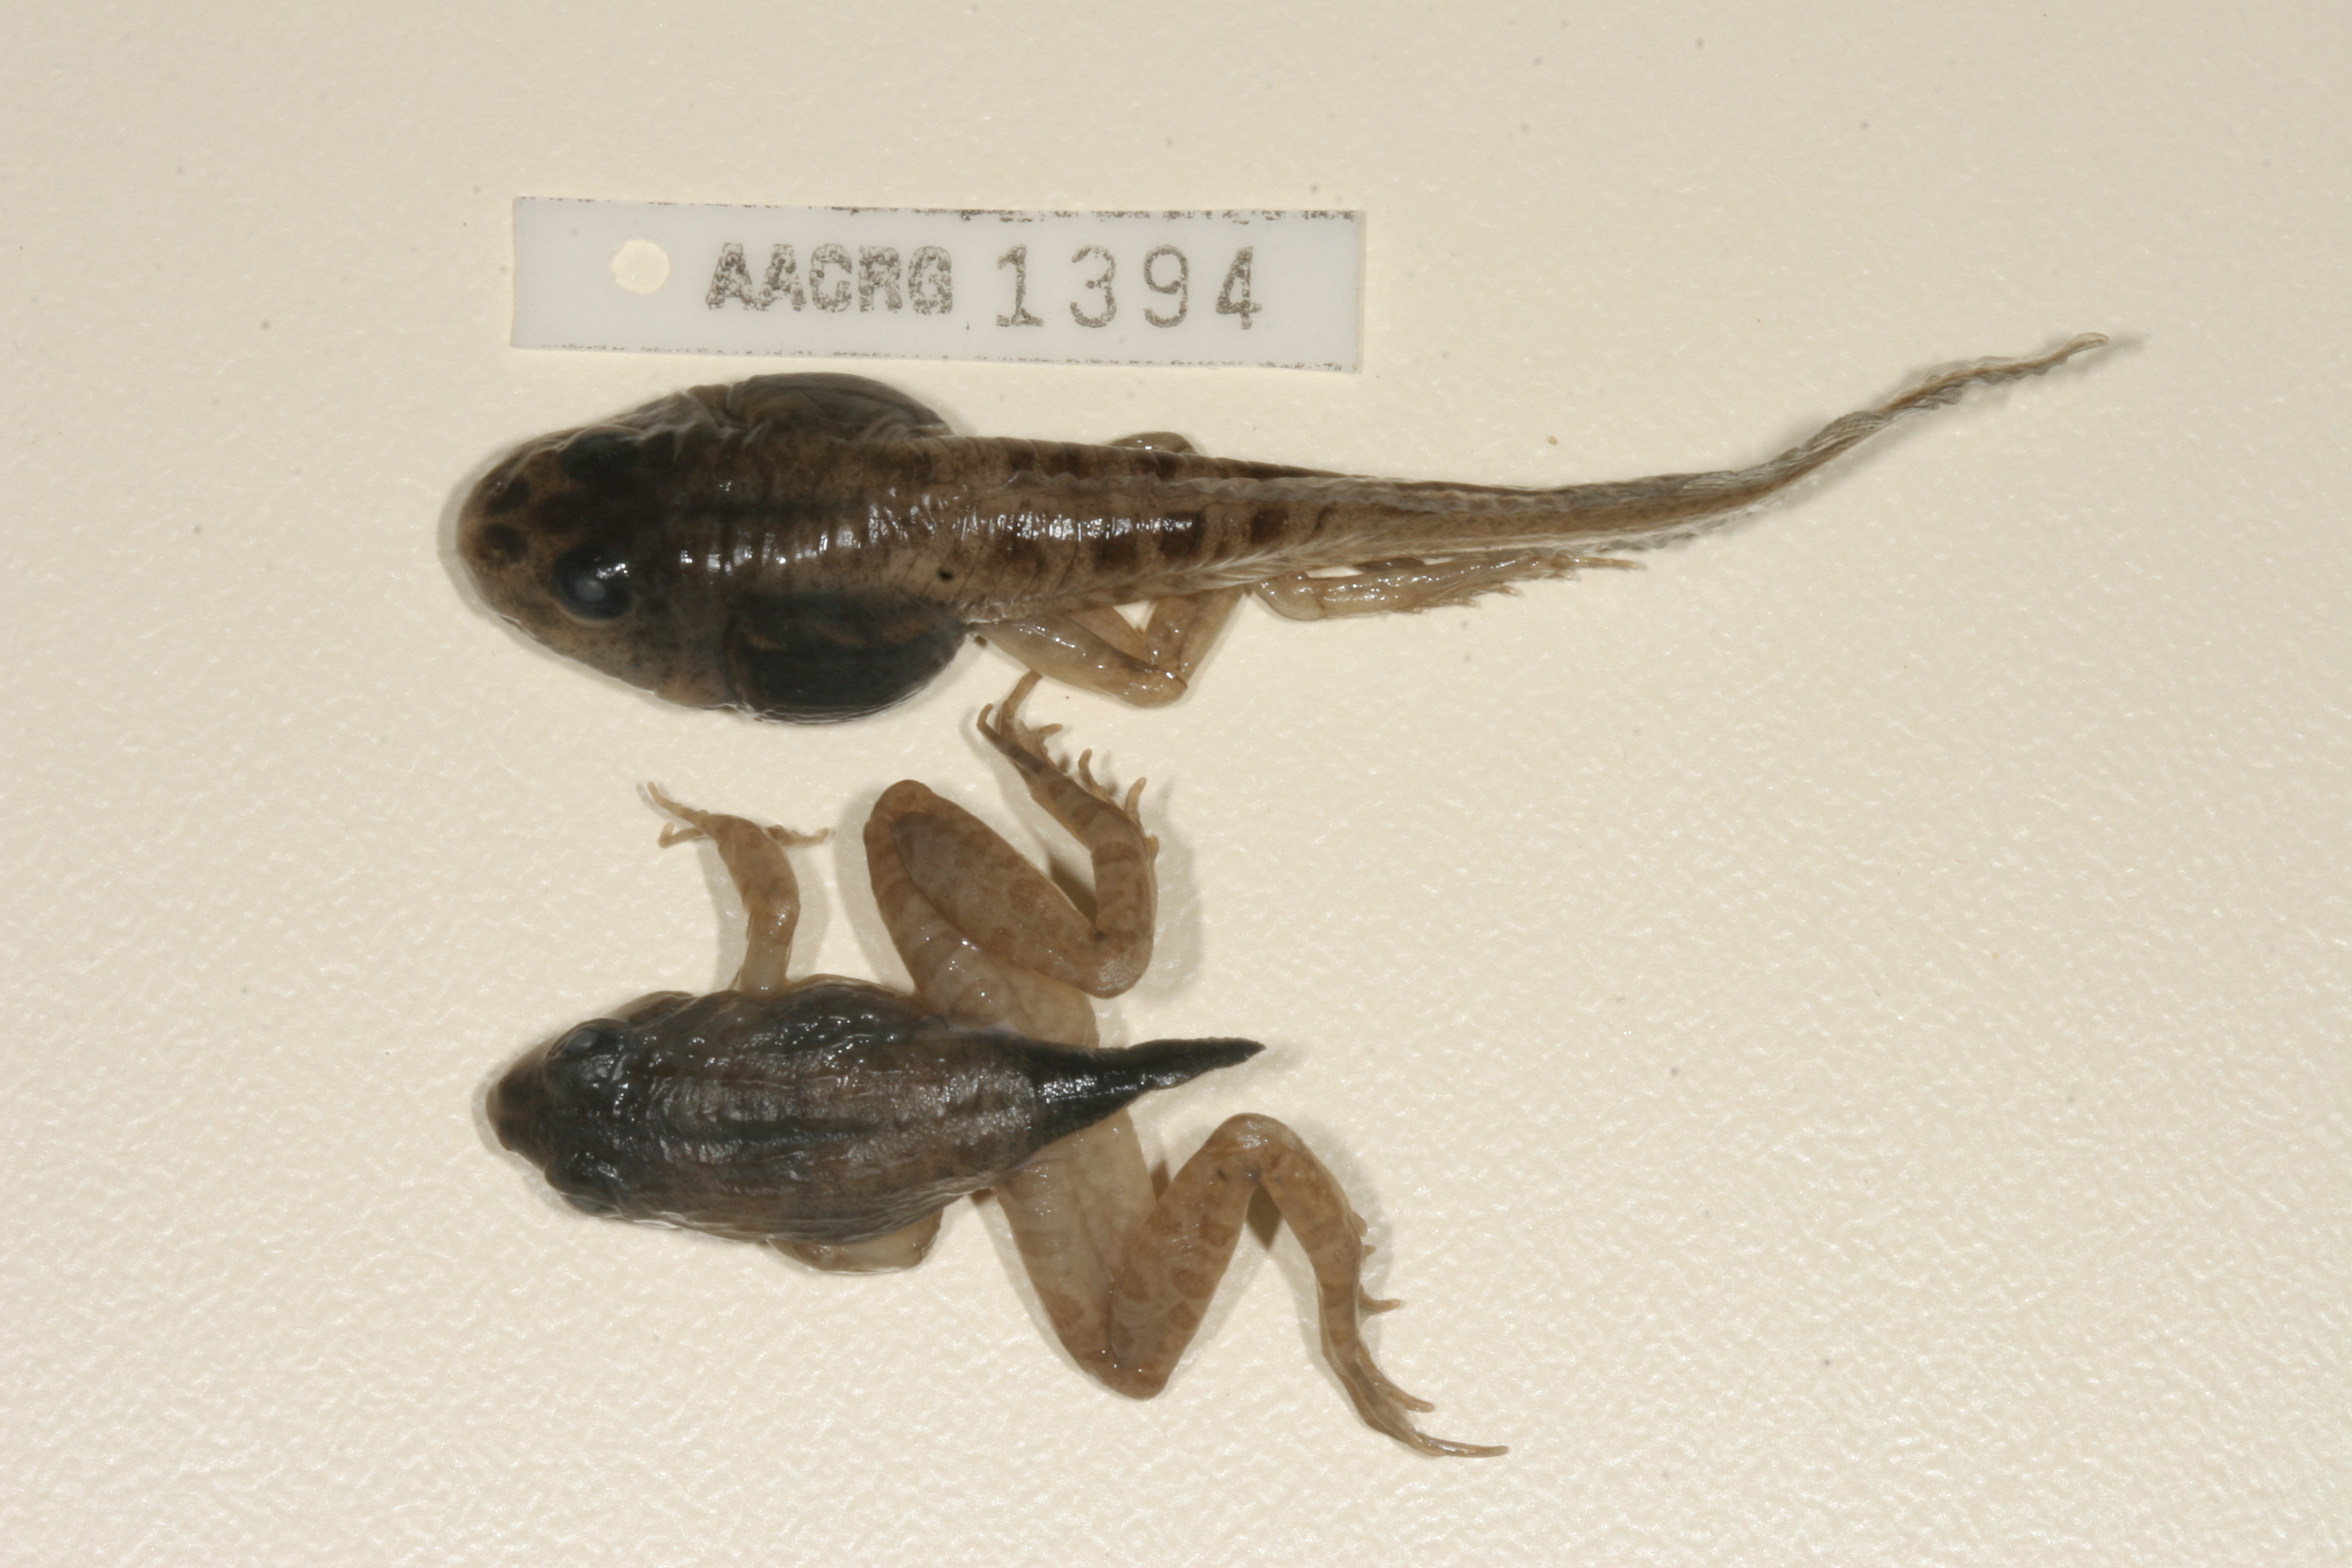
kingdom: Animalia
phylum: Chordata
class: Amphibia
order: Anura
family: Pyxicephalidae
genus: Amietia
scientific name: Amietia angolensis
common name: Dusky-throated frog
